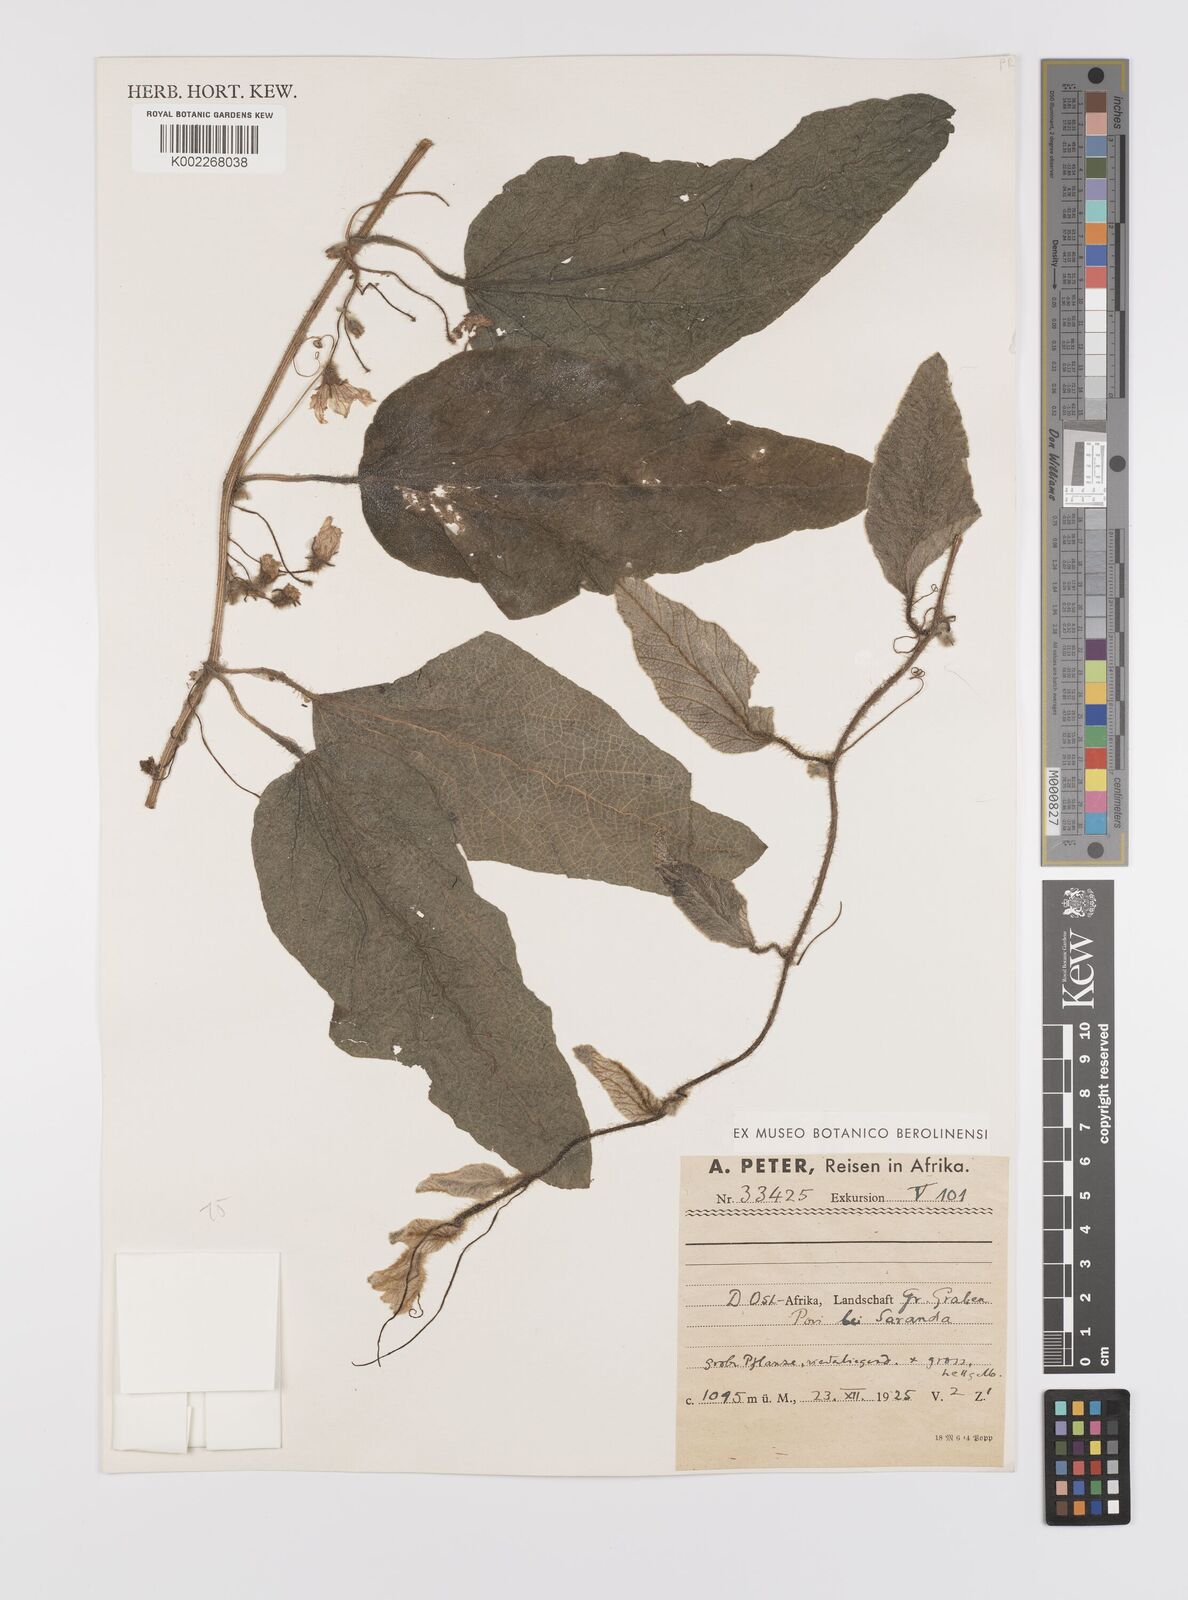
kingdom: Plantae
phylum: Tracheophyta
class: Magnoliopsida
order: Cucurbitales
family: Cucurbitaceae
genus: Cucumis
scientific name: Cucumis hirsutus
